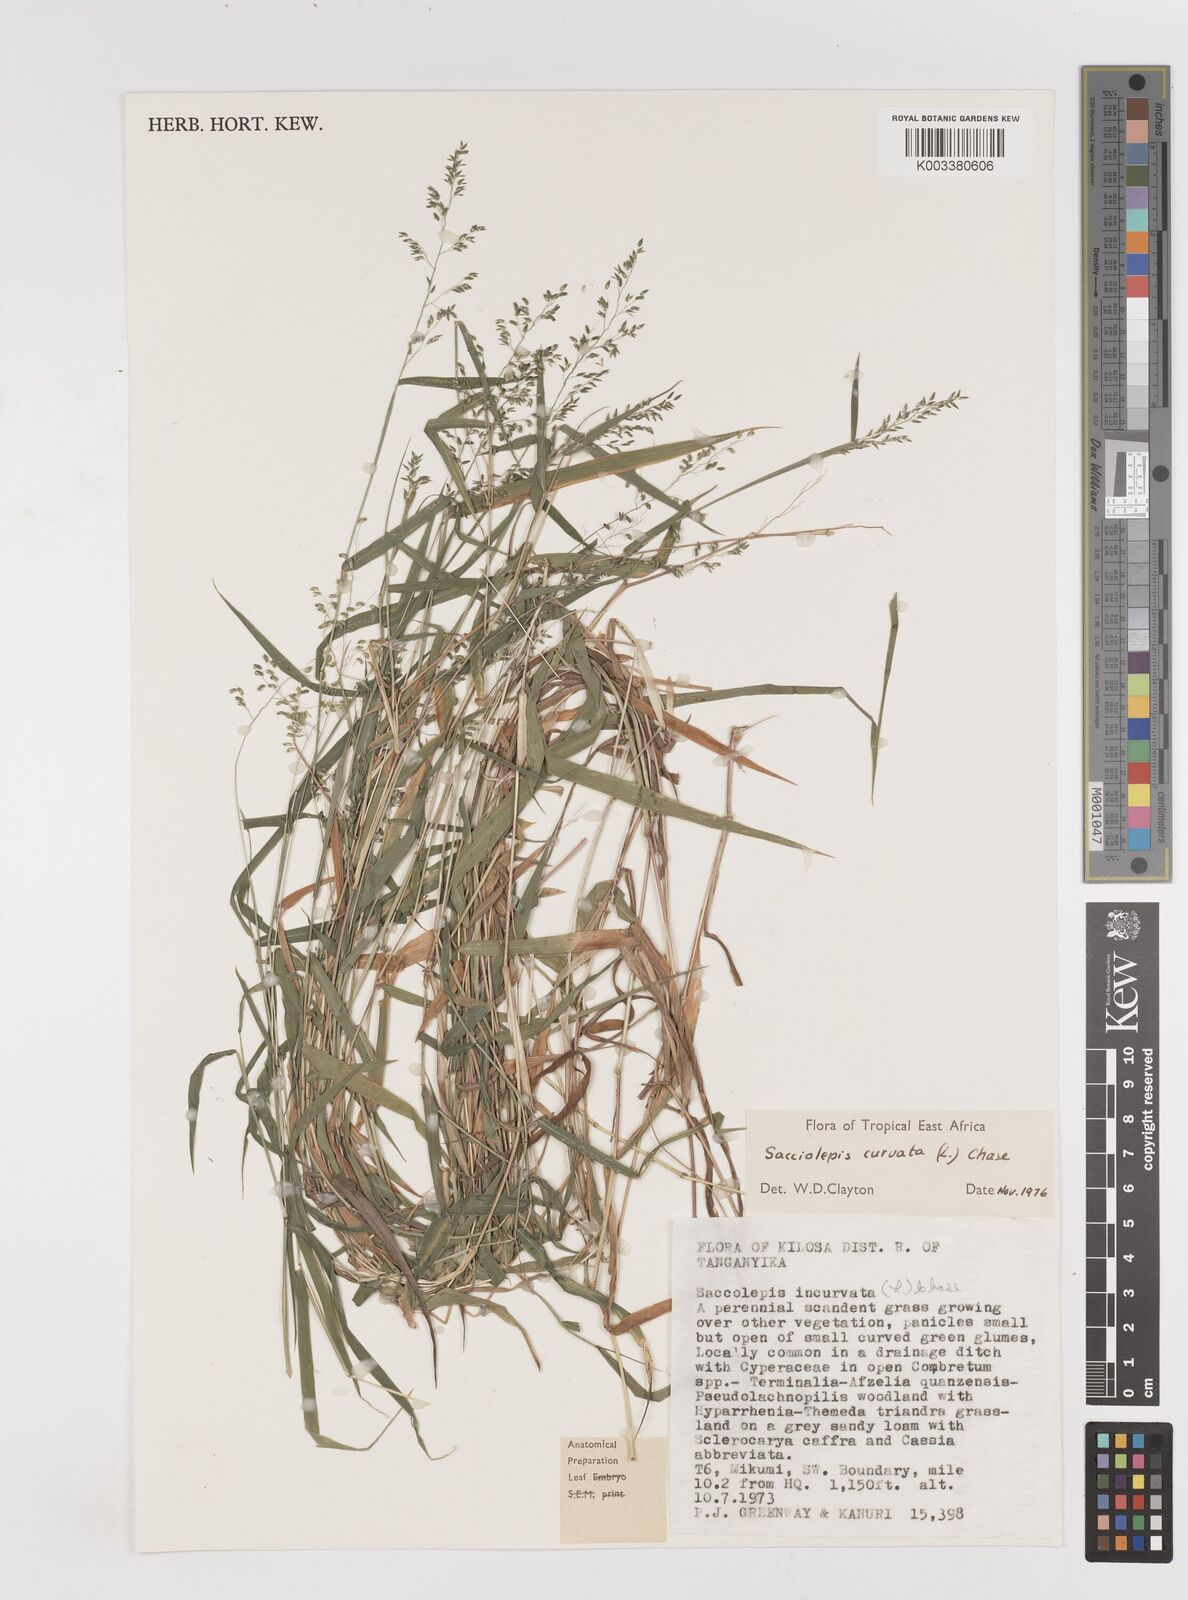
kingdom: Plantae
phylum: Tracheophyta
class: Liliopsida
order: Poales
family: Poaceae
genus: Sacciolepis
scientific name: Sacciolepis curvata
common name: Forest hood grass
